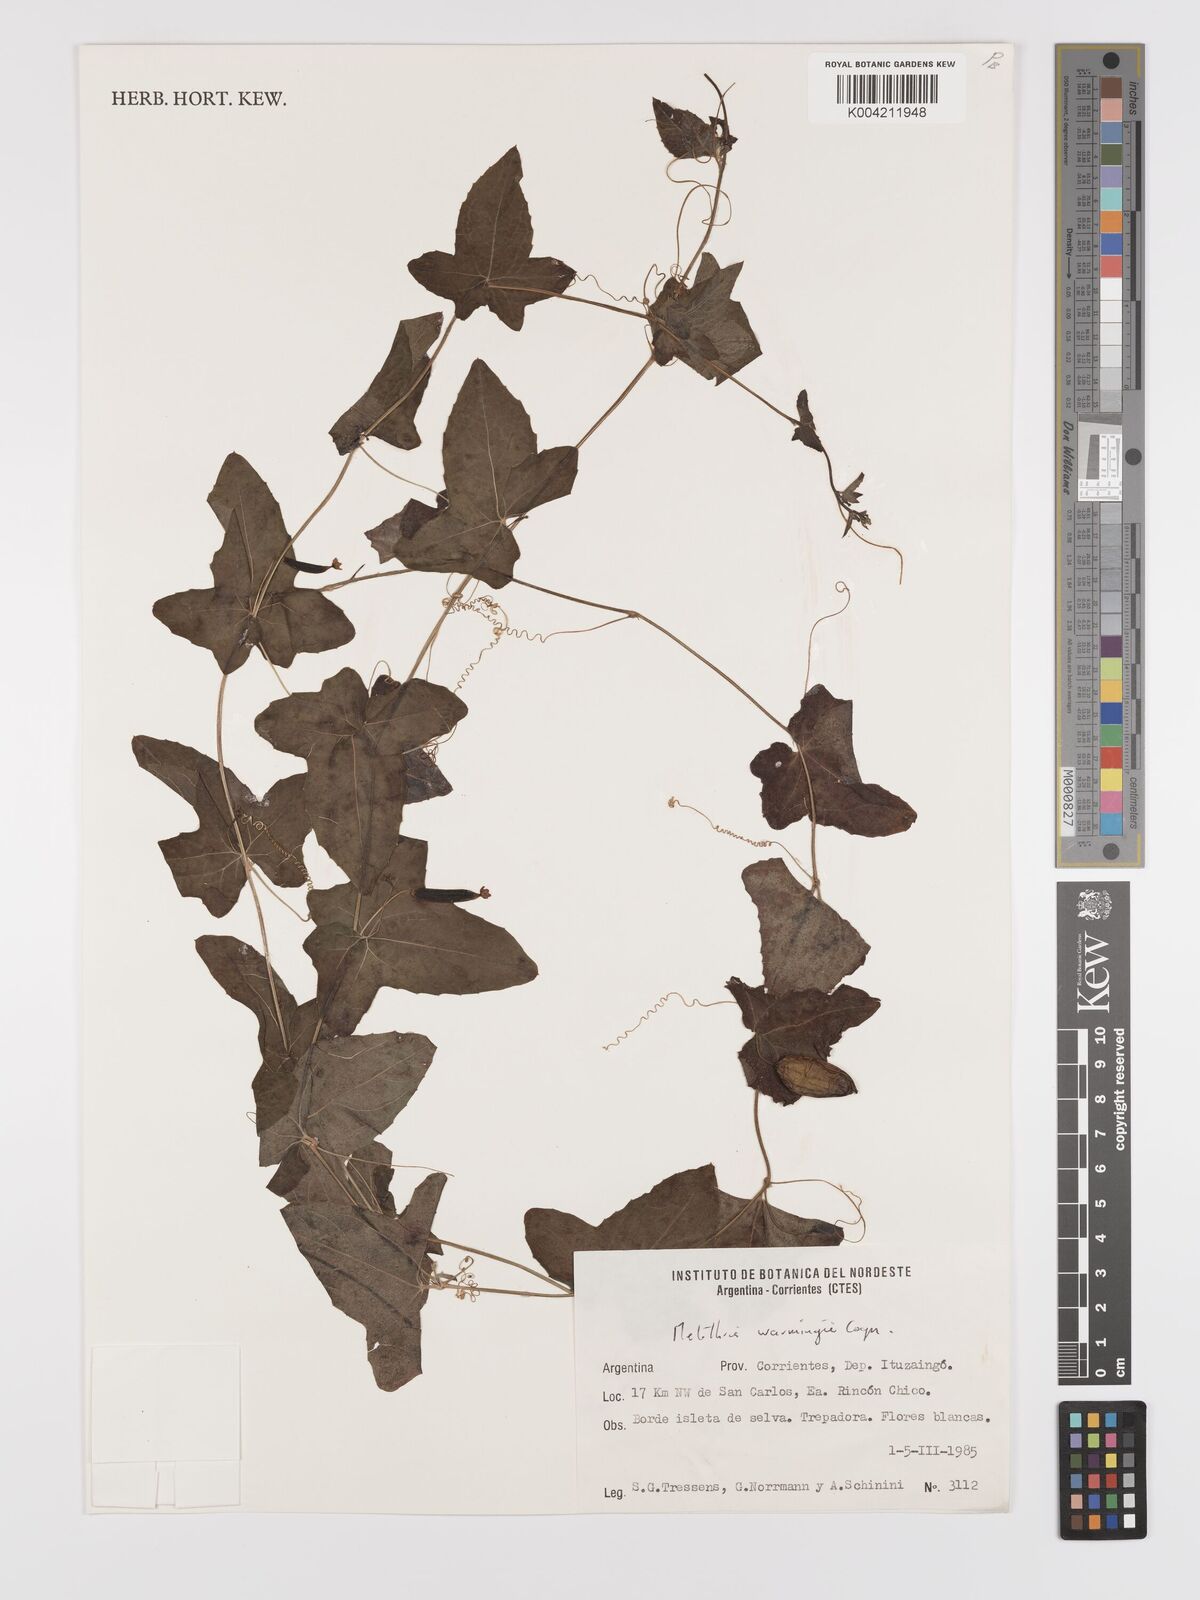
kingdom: Plantae
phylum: Tracheophyta
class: Magnoliopsida
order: Cucurbitales
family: Cucurbitaceae
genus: Melothria
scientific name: Melothria warmingii
